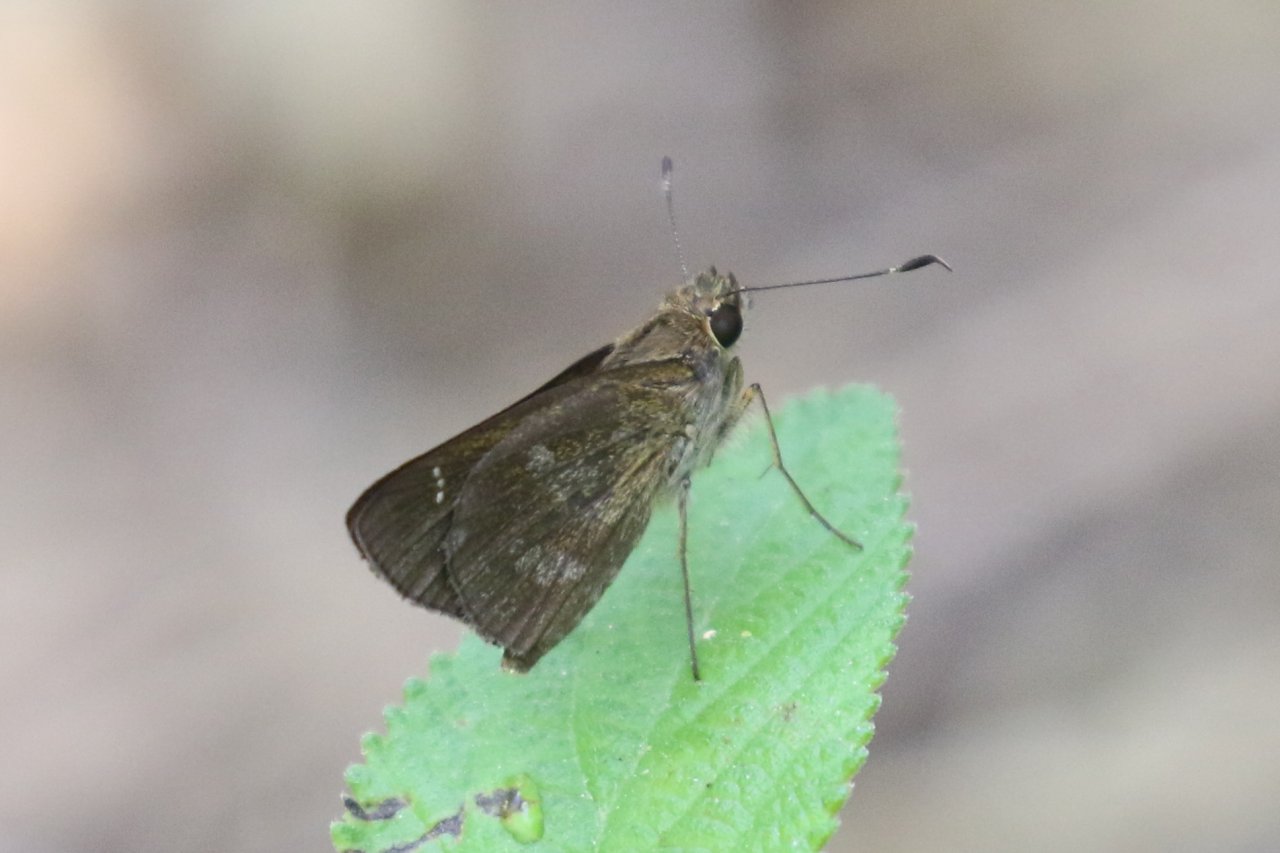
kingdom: Animalia
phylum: Arthropoda
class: Insecta
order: Lepidoptera
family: Hesperiidae
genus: Cymaenes
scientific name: Cymaenes odilia
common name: Fawn-spotted Skipper
